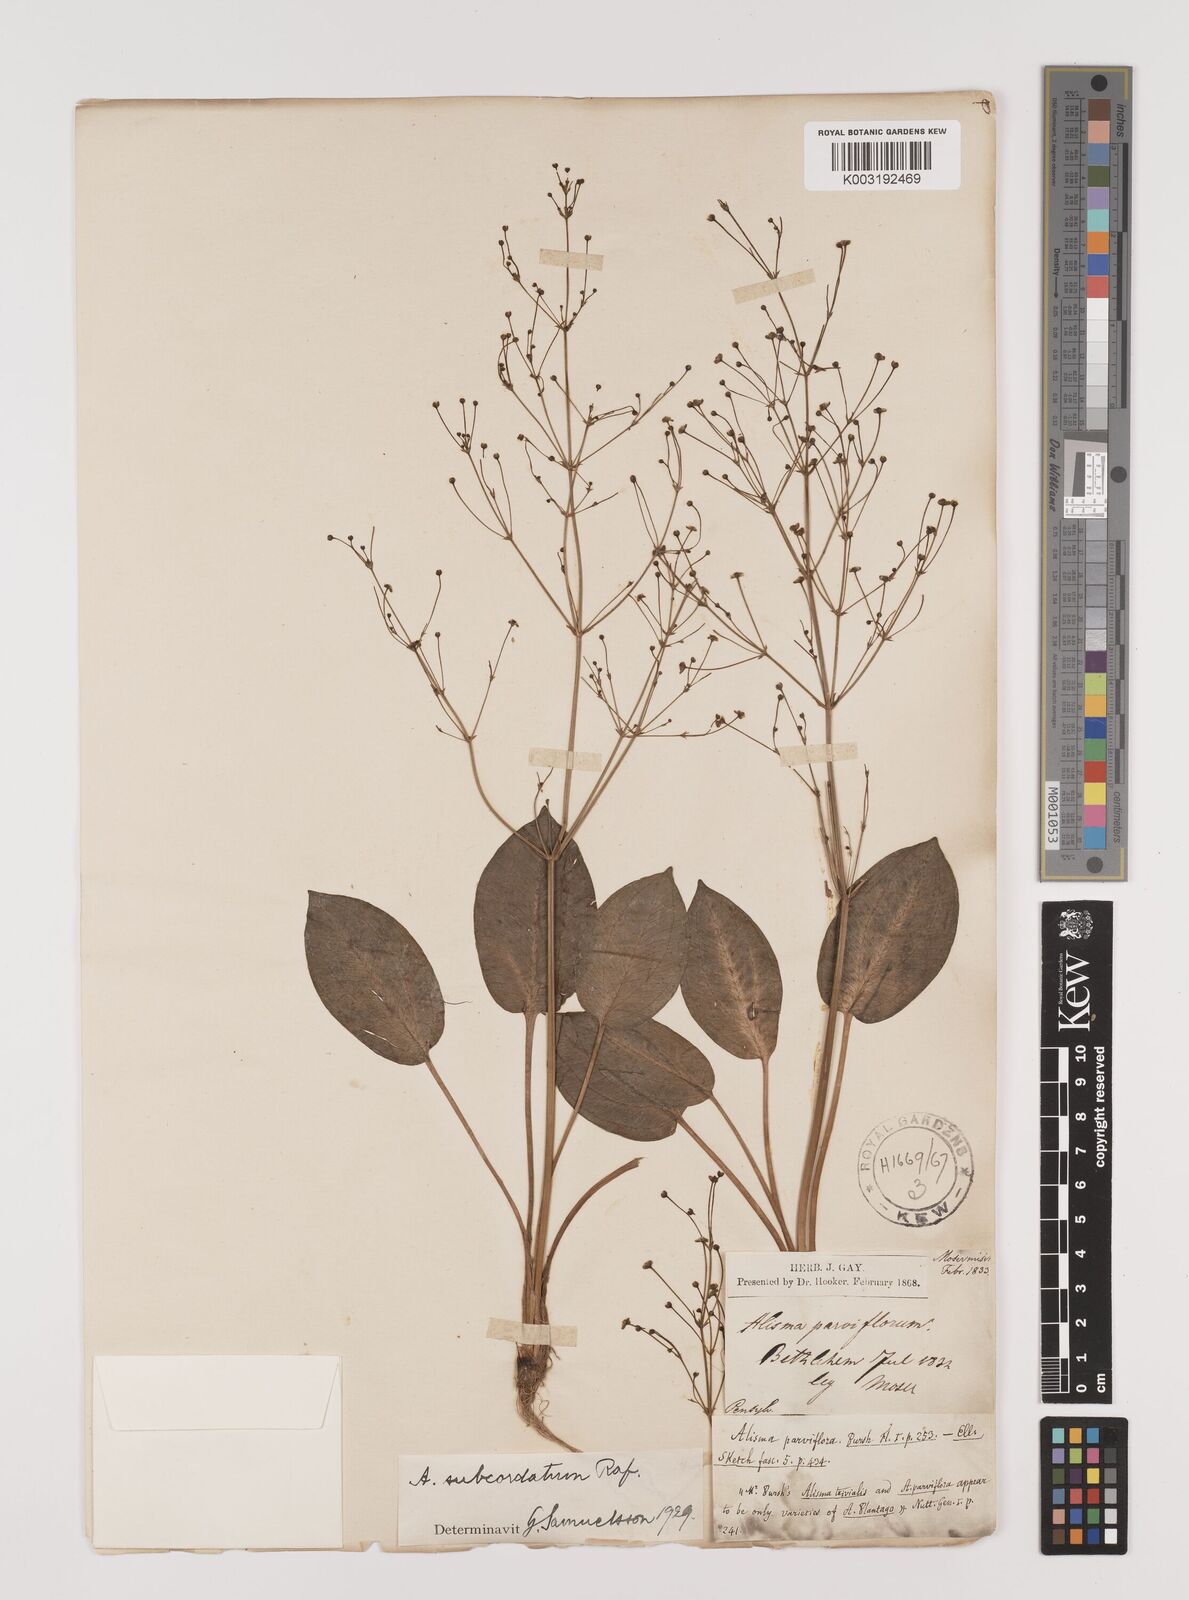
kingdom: Plantae
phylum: Tracheophyta
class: Liliopsida
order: Alismatales
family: Alismataceae
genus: Alisma
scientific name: Alisma subcordatum
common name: Southern water-plantain
